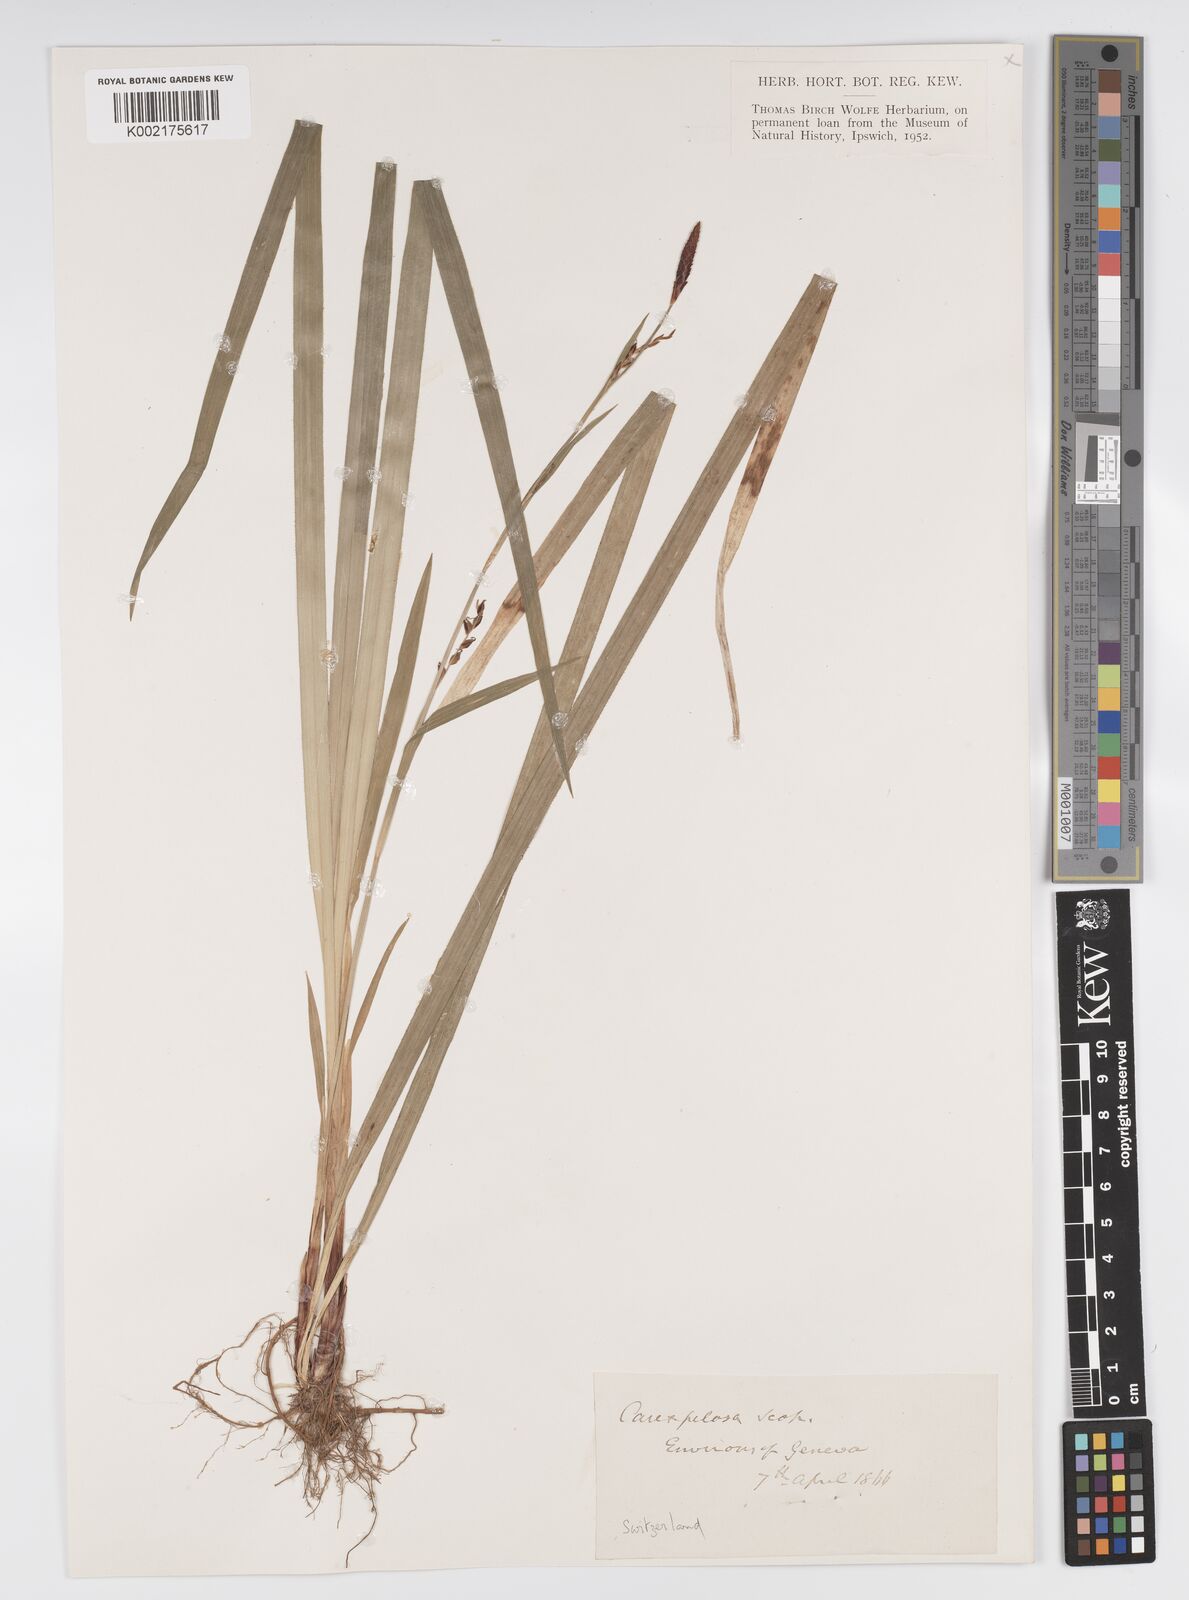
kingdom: Plantae
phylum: Tracheophyta
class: Liliopsida
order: Poales
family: Cyperaceae
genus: Carex
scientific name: Carex pilosa
